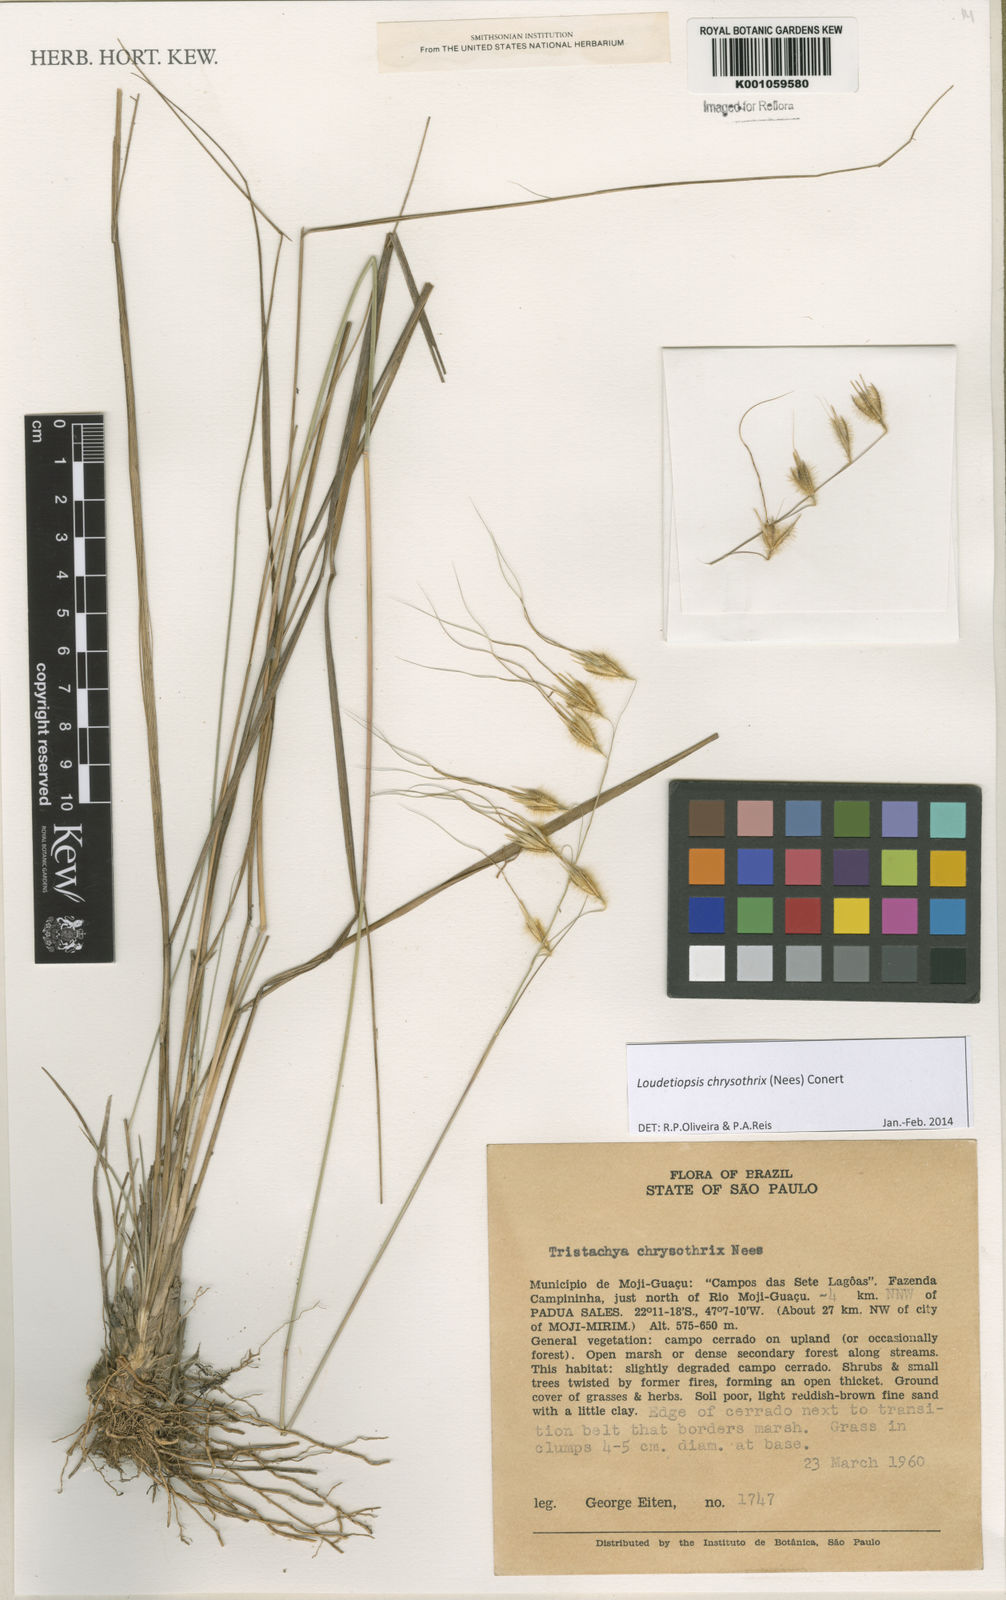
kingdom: Plantae
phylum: Tracheophyta
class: Liliopsida
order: Poales
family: Poaceae
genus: Loudetiopsis
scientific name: Loudetiopsis chrysothrix
